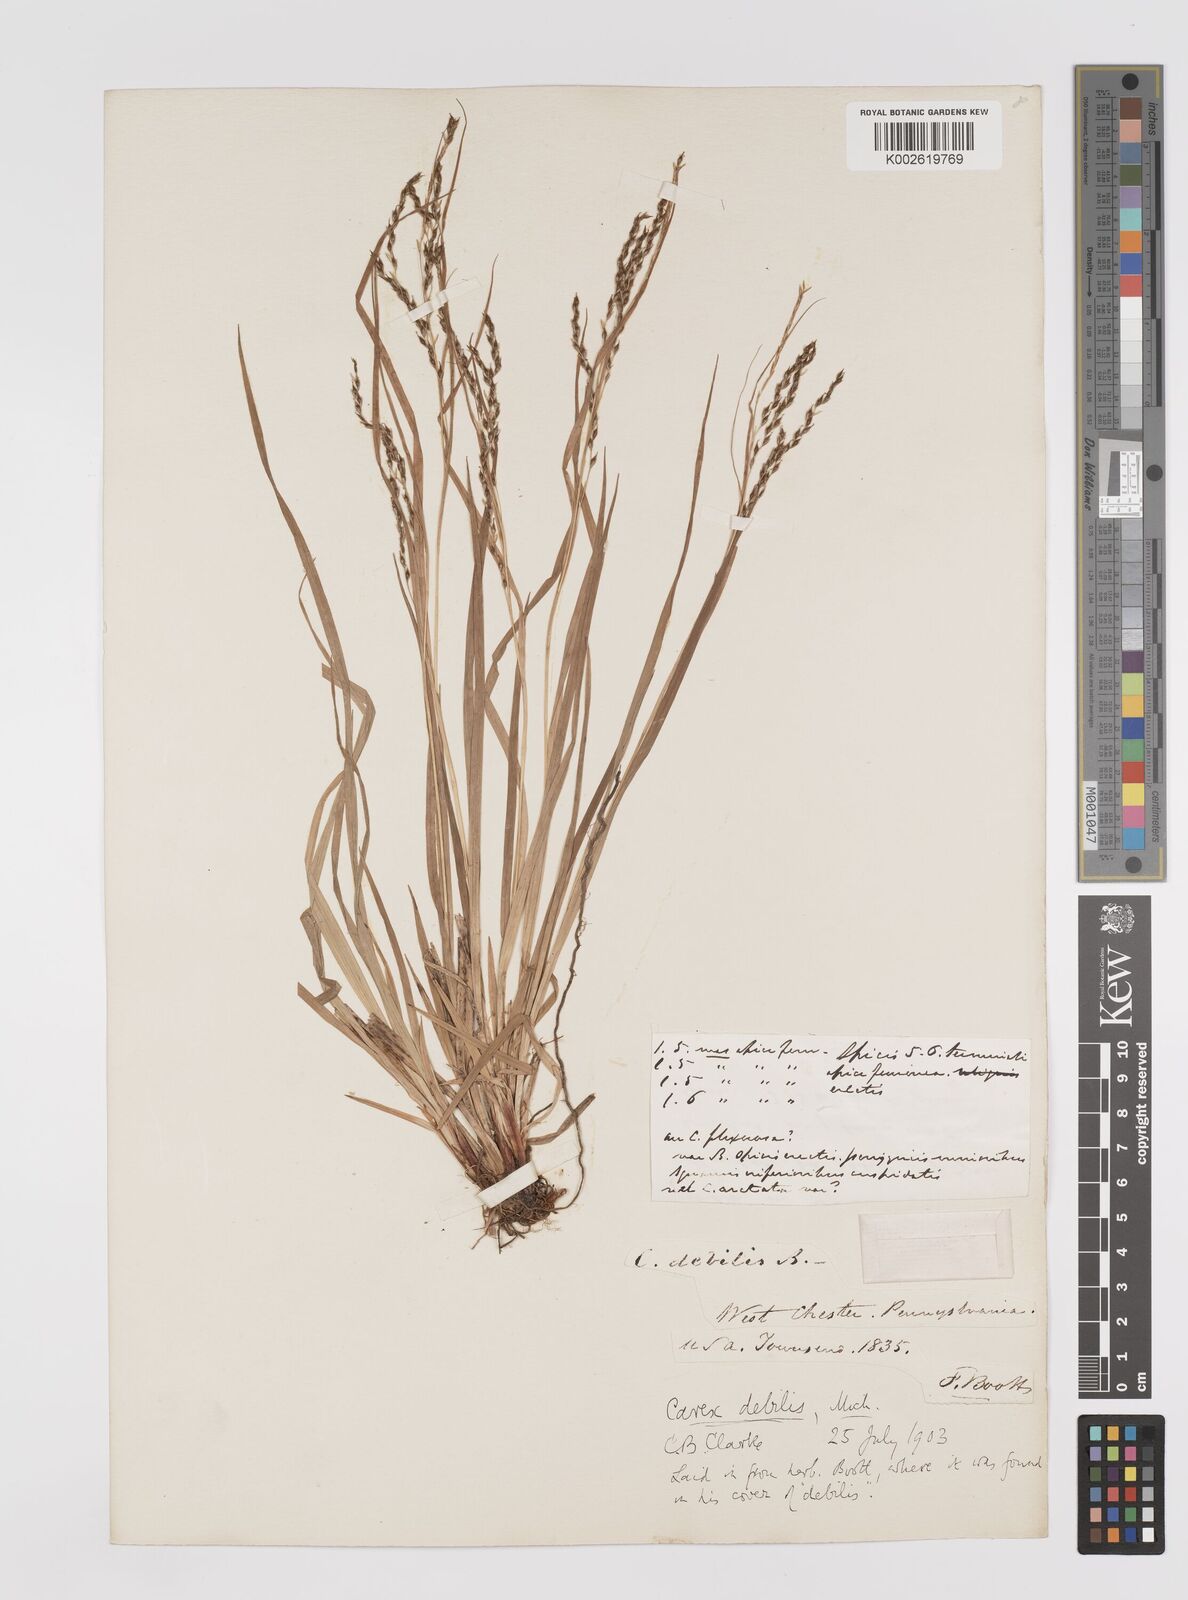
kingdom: Plantae
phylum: Tracheophyta
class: Liliopsida
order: Poales
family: Cyperaceae
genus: Carex
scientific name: Carex debilis
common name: White-edge sedge
